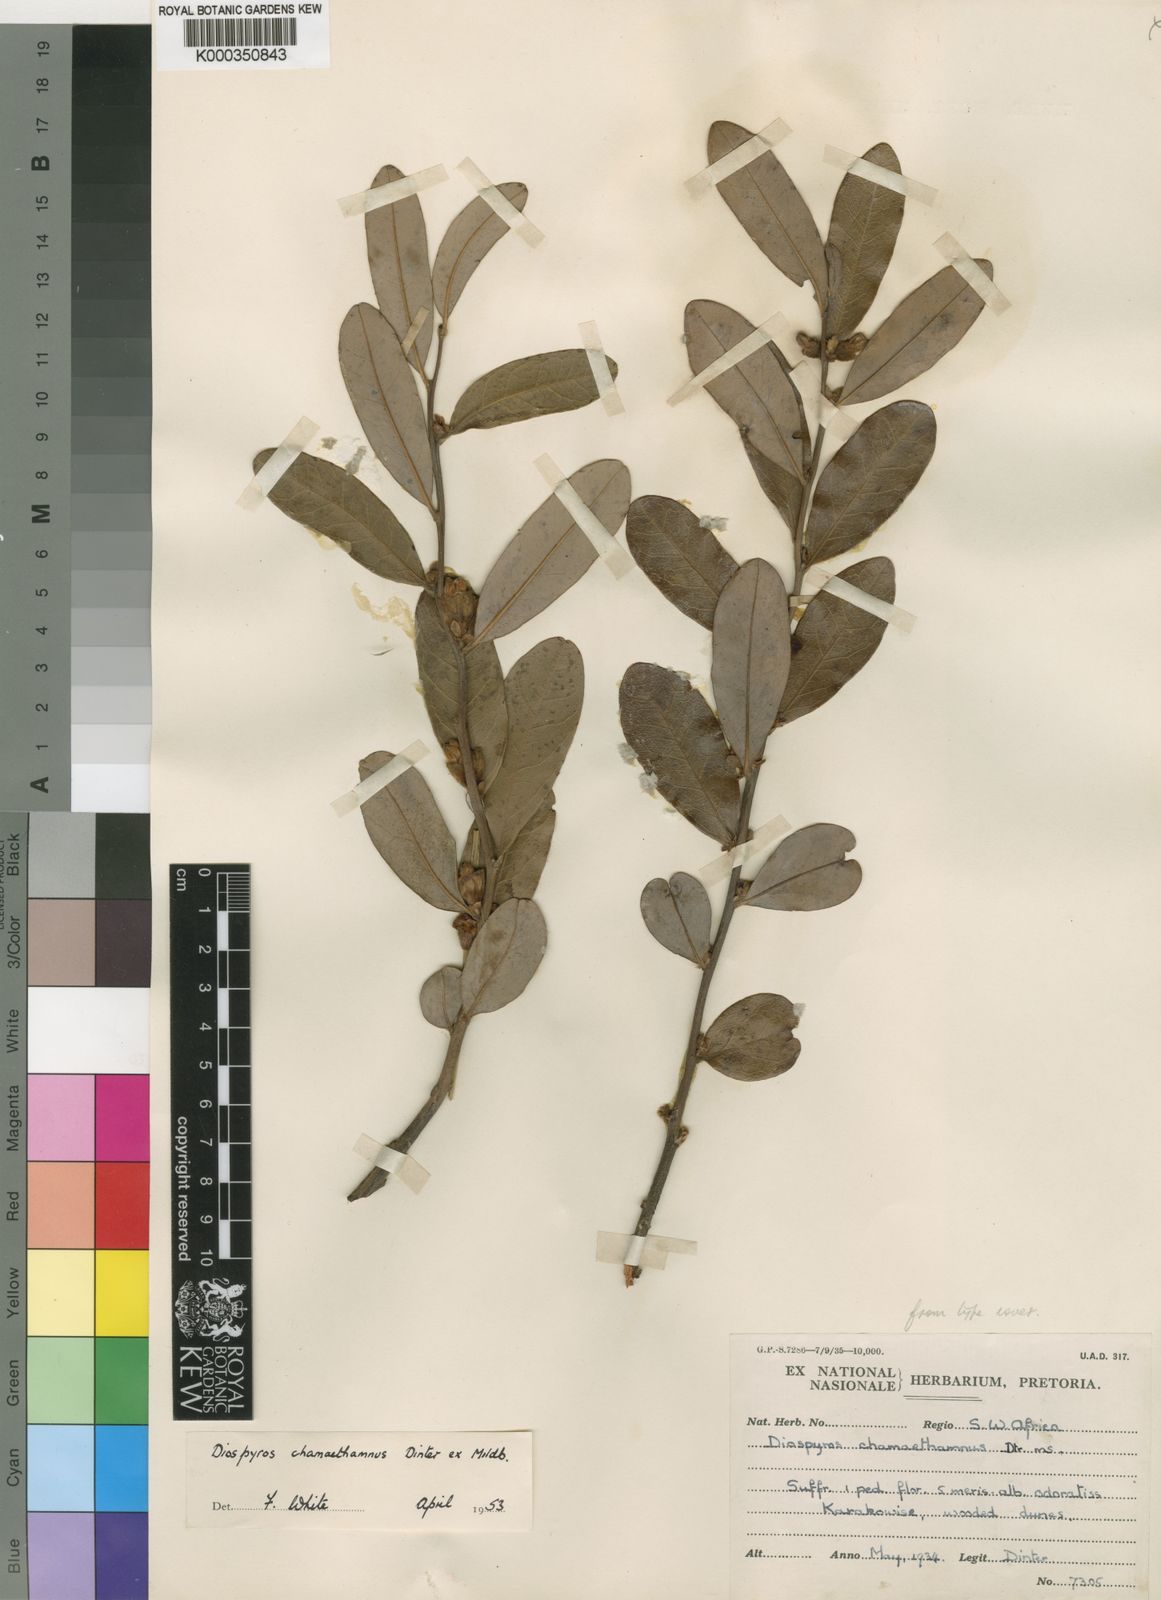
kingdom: Plantae
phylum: Tracheophyta
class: Magnoliopsida
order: Ericales
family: Ebenaceae
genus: Diospyros
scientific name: Diospyros chamaethamnus
